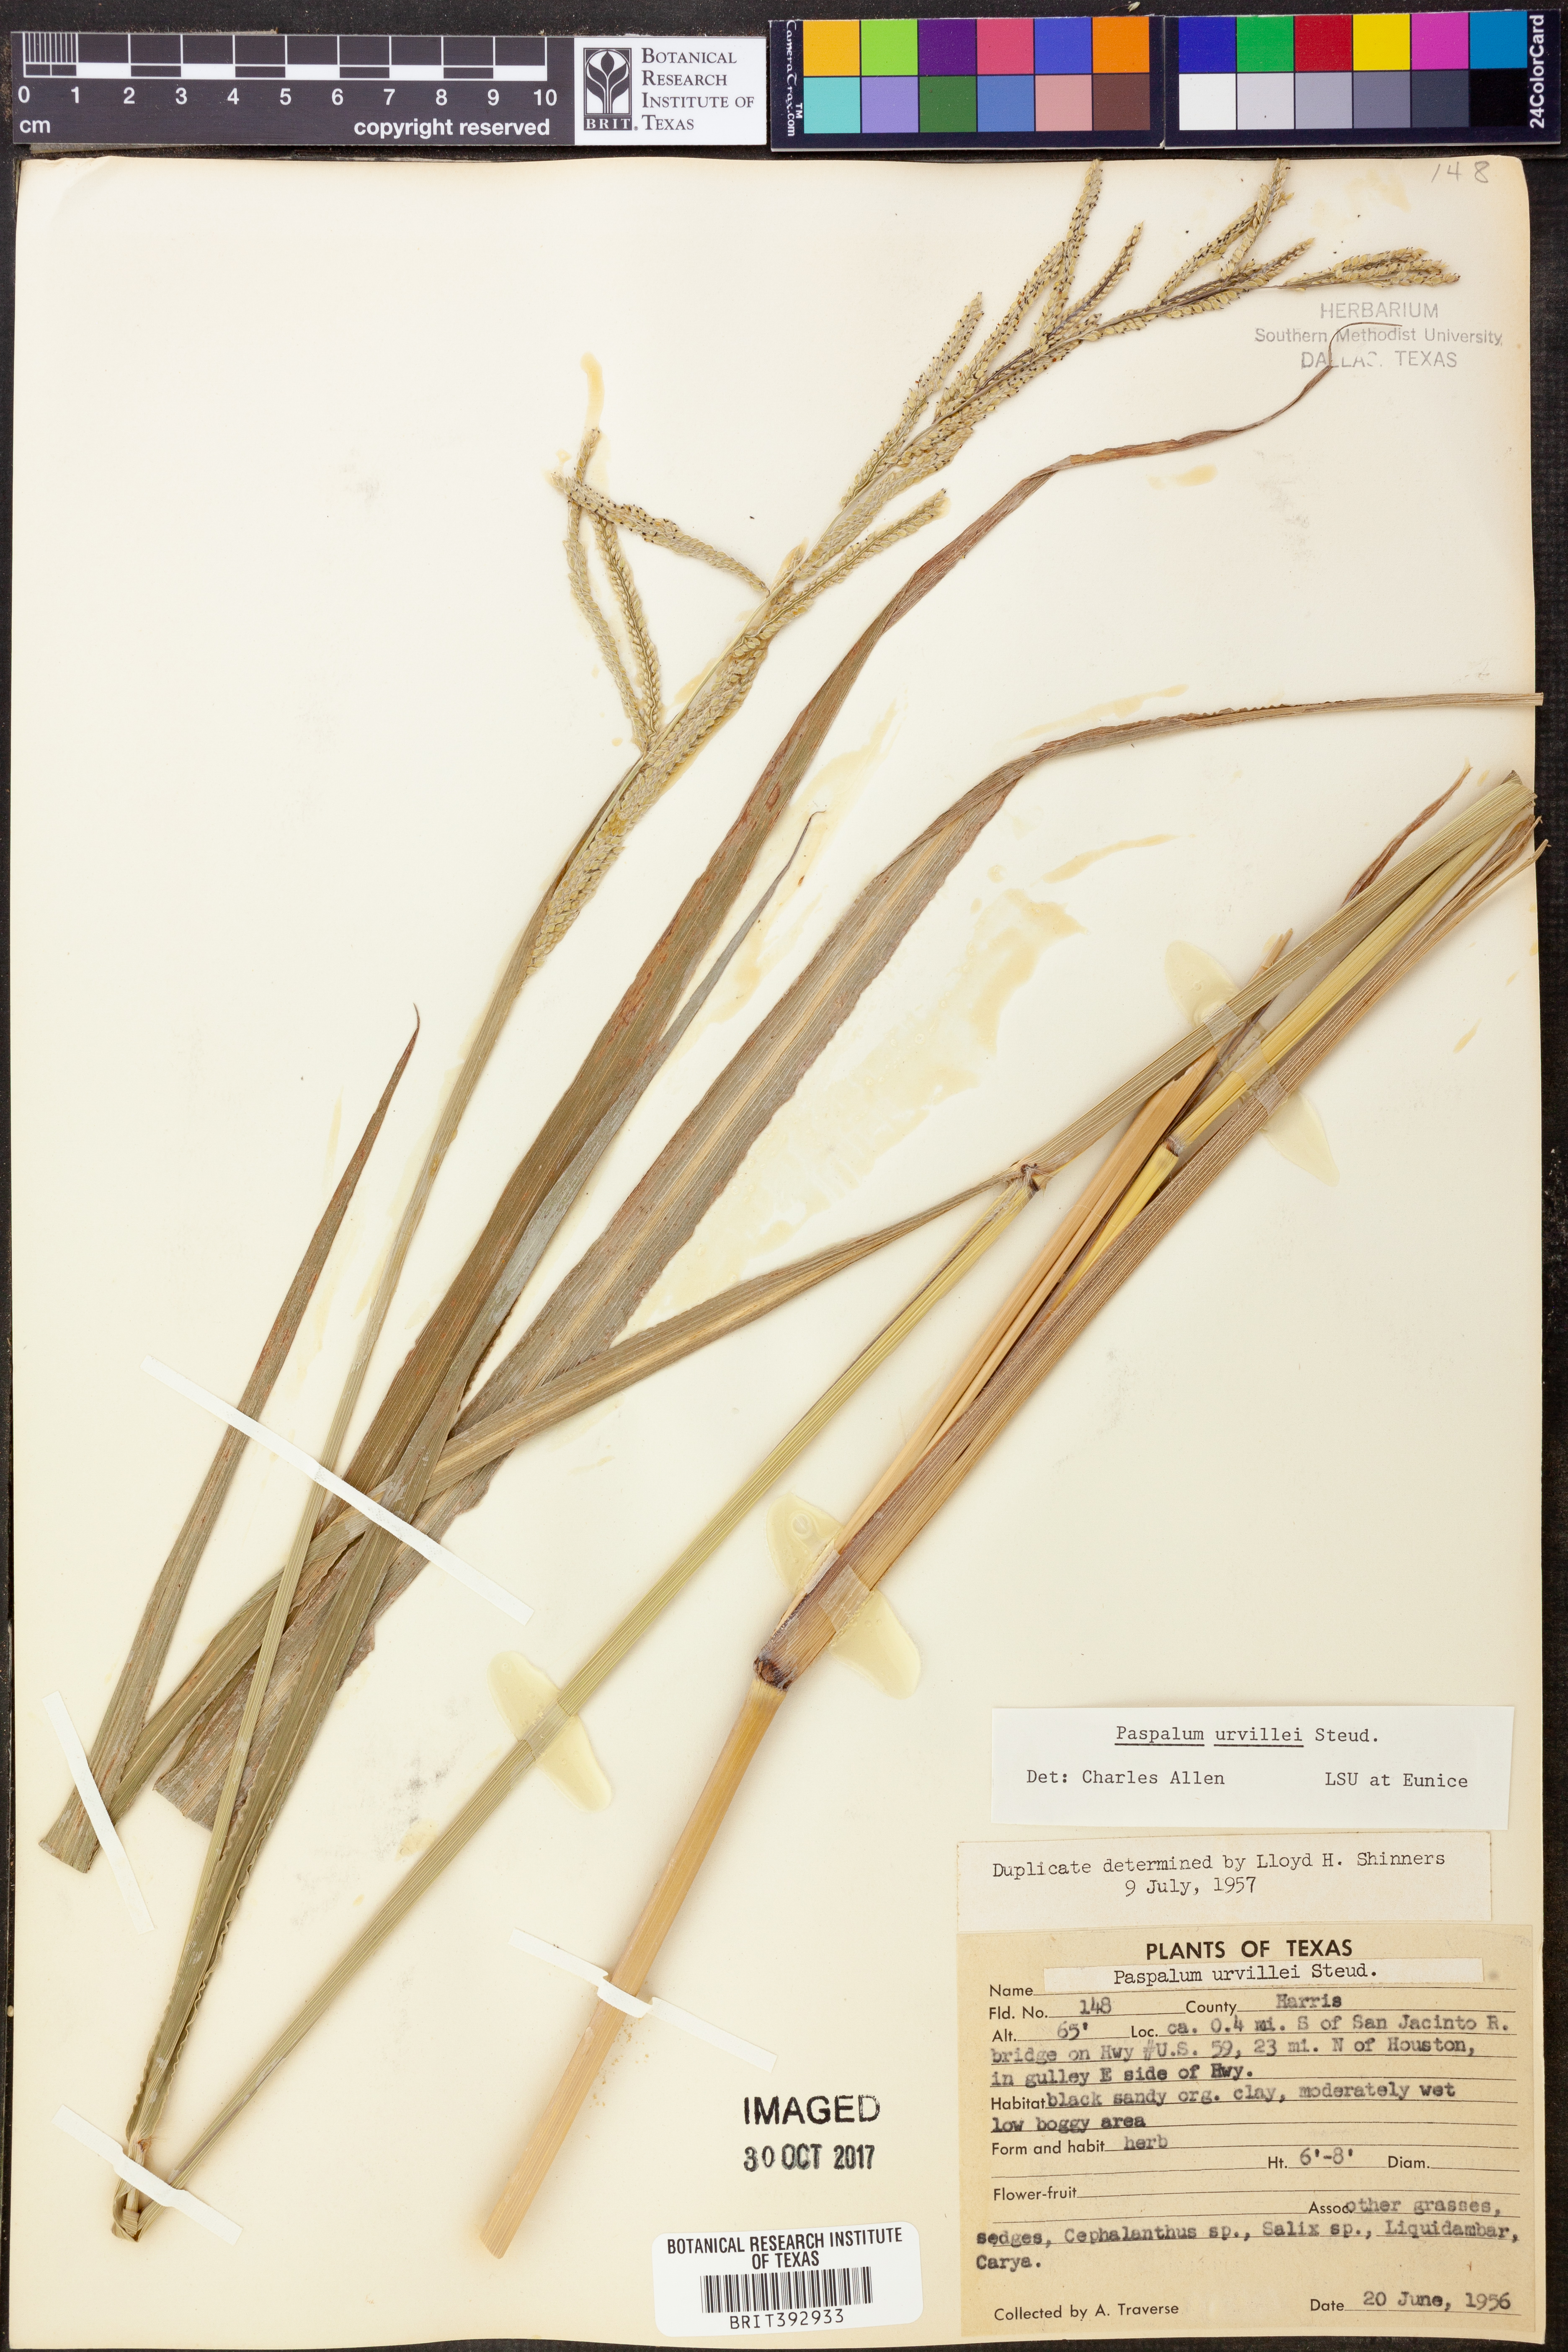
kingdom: Plantae
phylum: Tracheophyta
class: Liliopsida
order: Poales
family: Poaceae
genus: Paspalum
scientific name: Paspalum urvillei
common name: Vasey's grass
